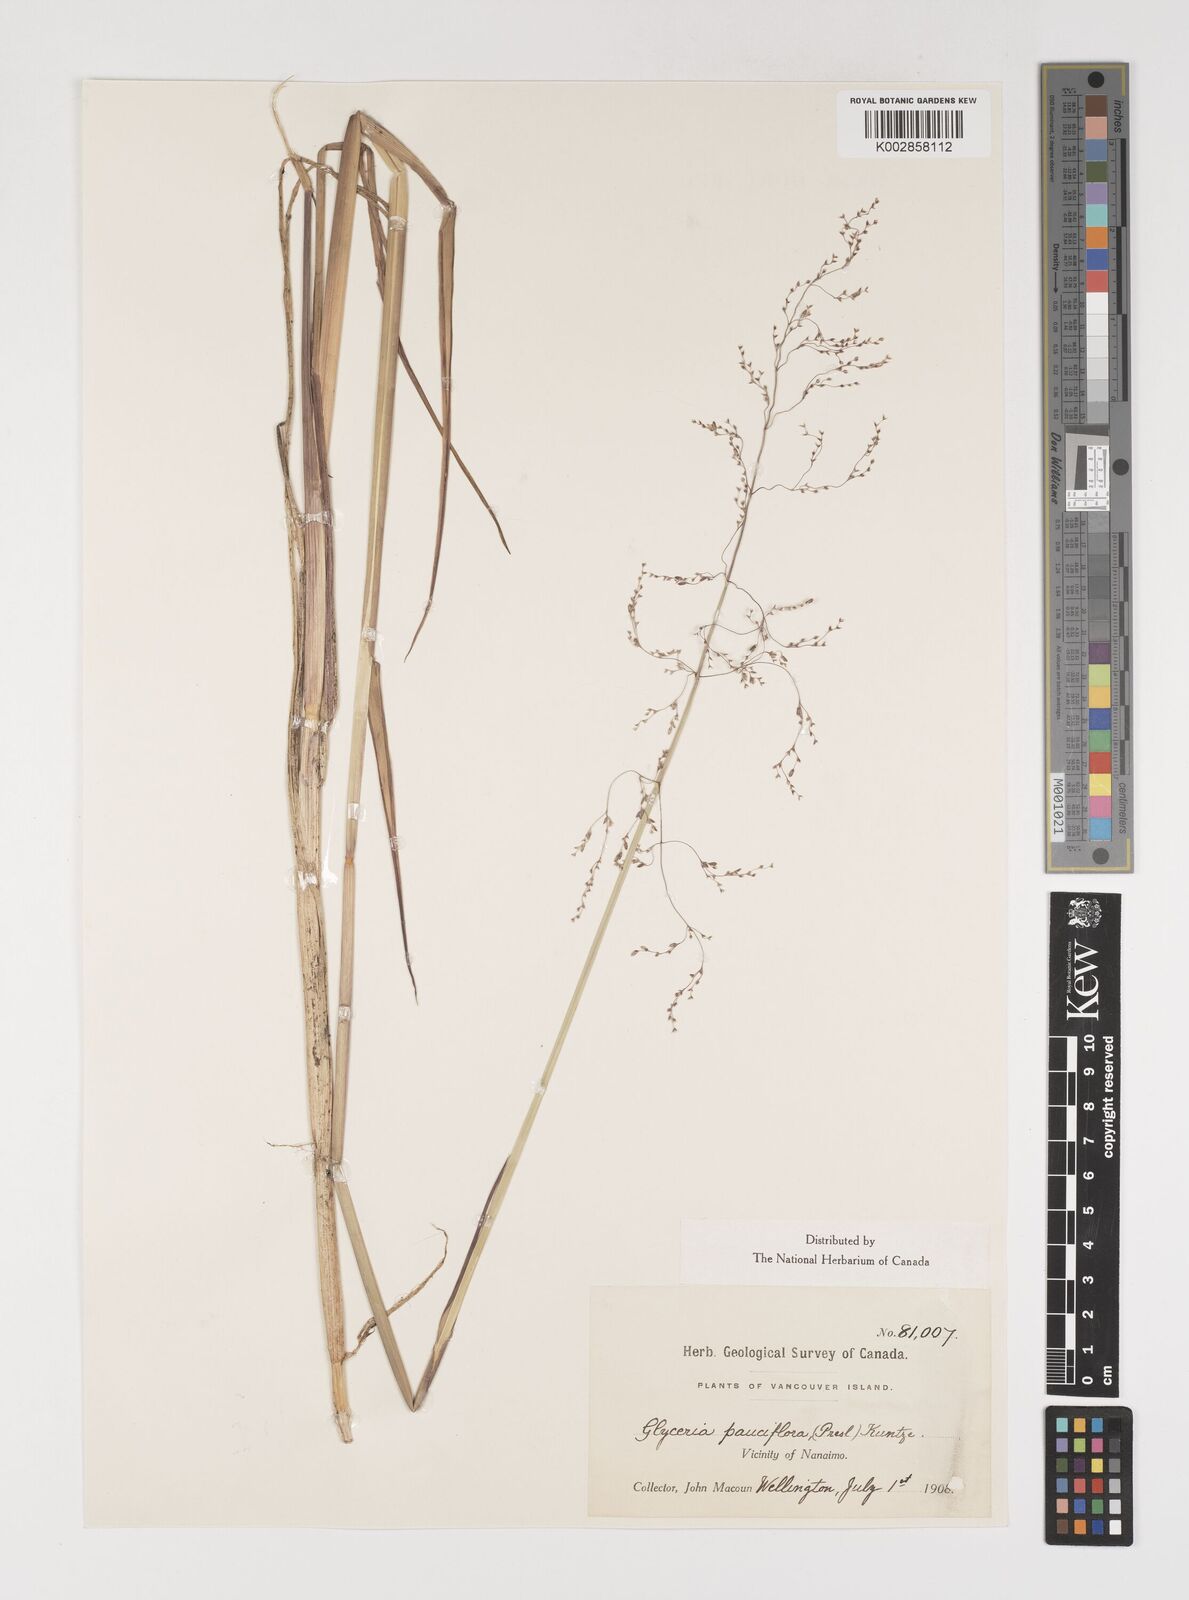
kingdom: Plantae
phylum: Tracheophyta
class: Liliopsida
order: Poales
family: Poaceae
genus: Torreyochloa
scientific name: Torreyochloa pallida
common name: Pale false mannagrass
